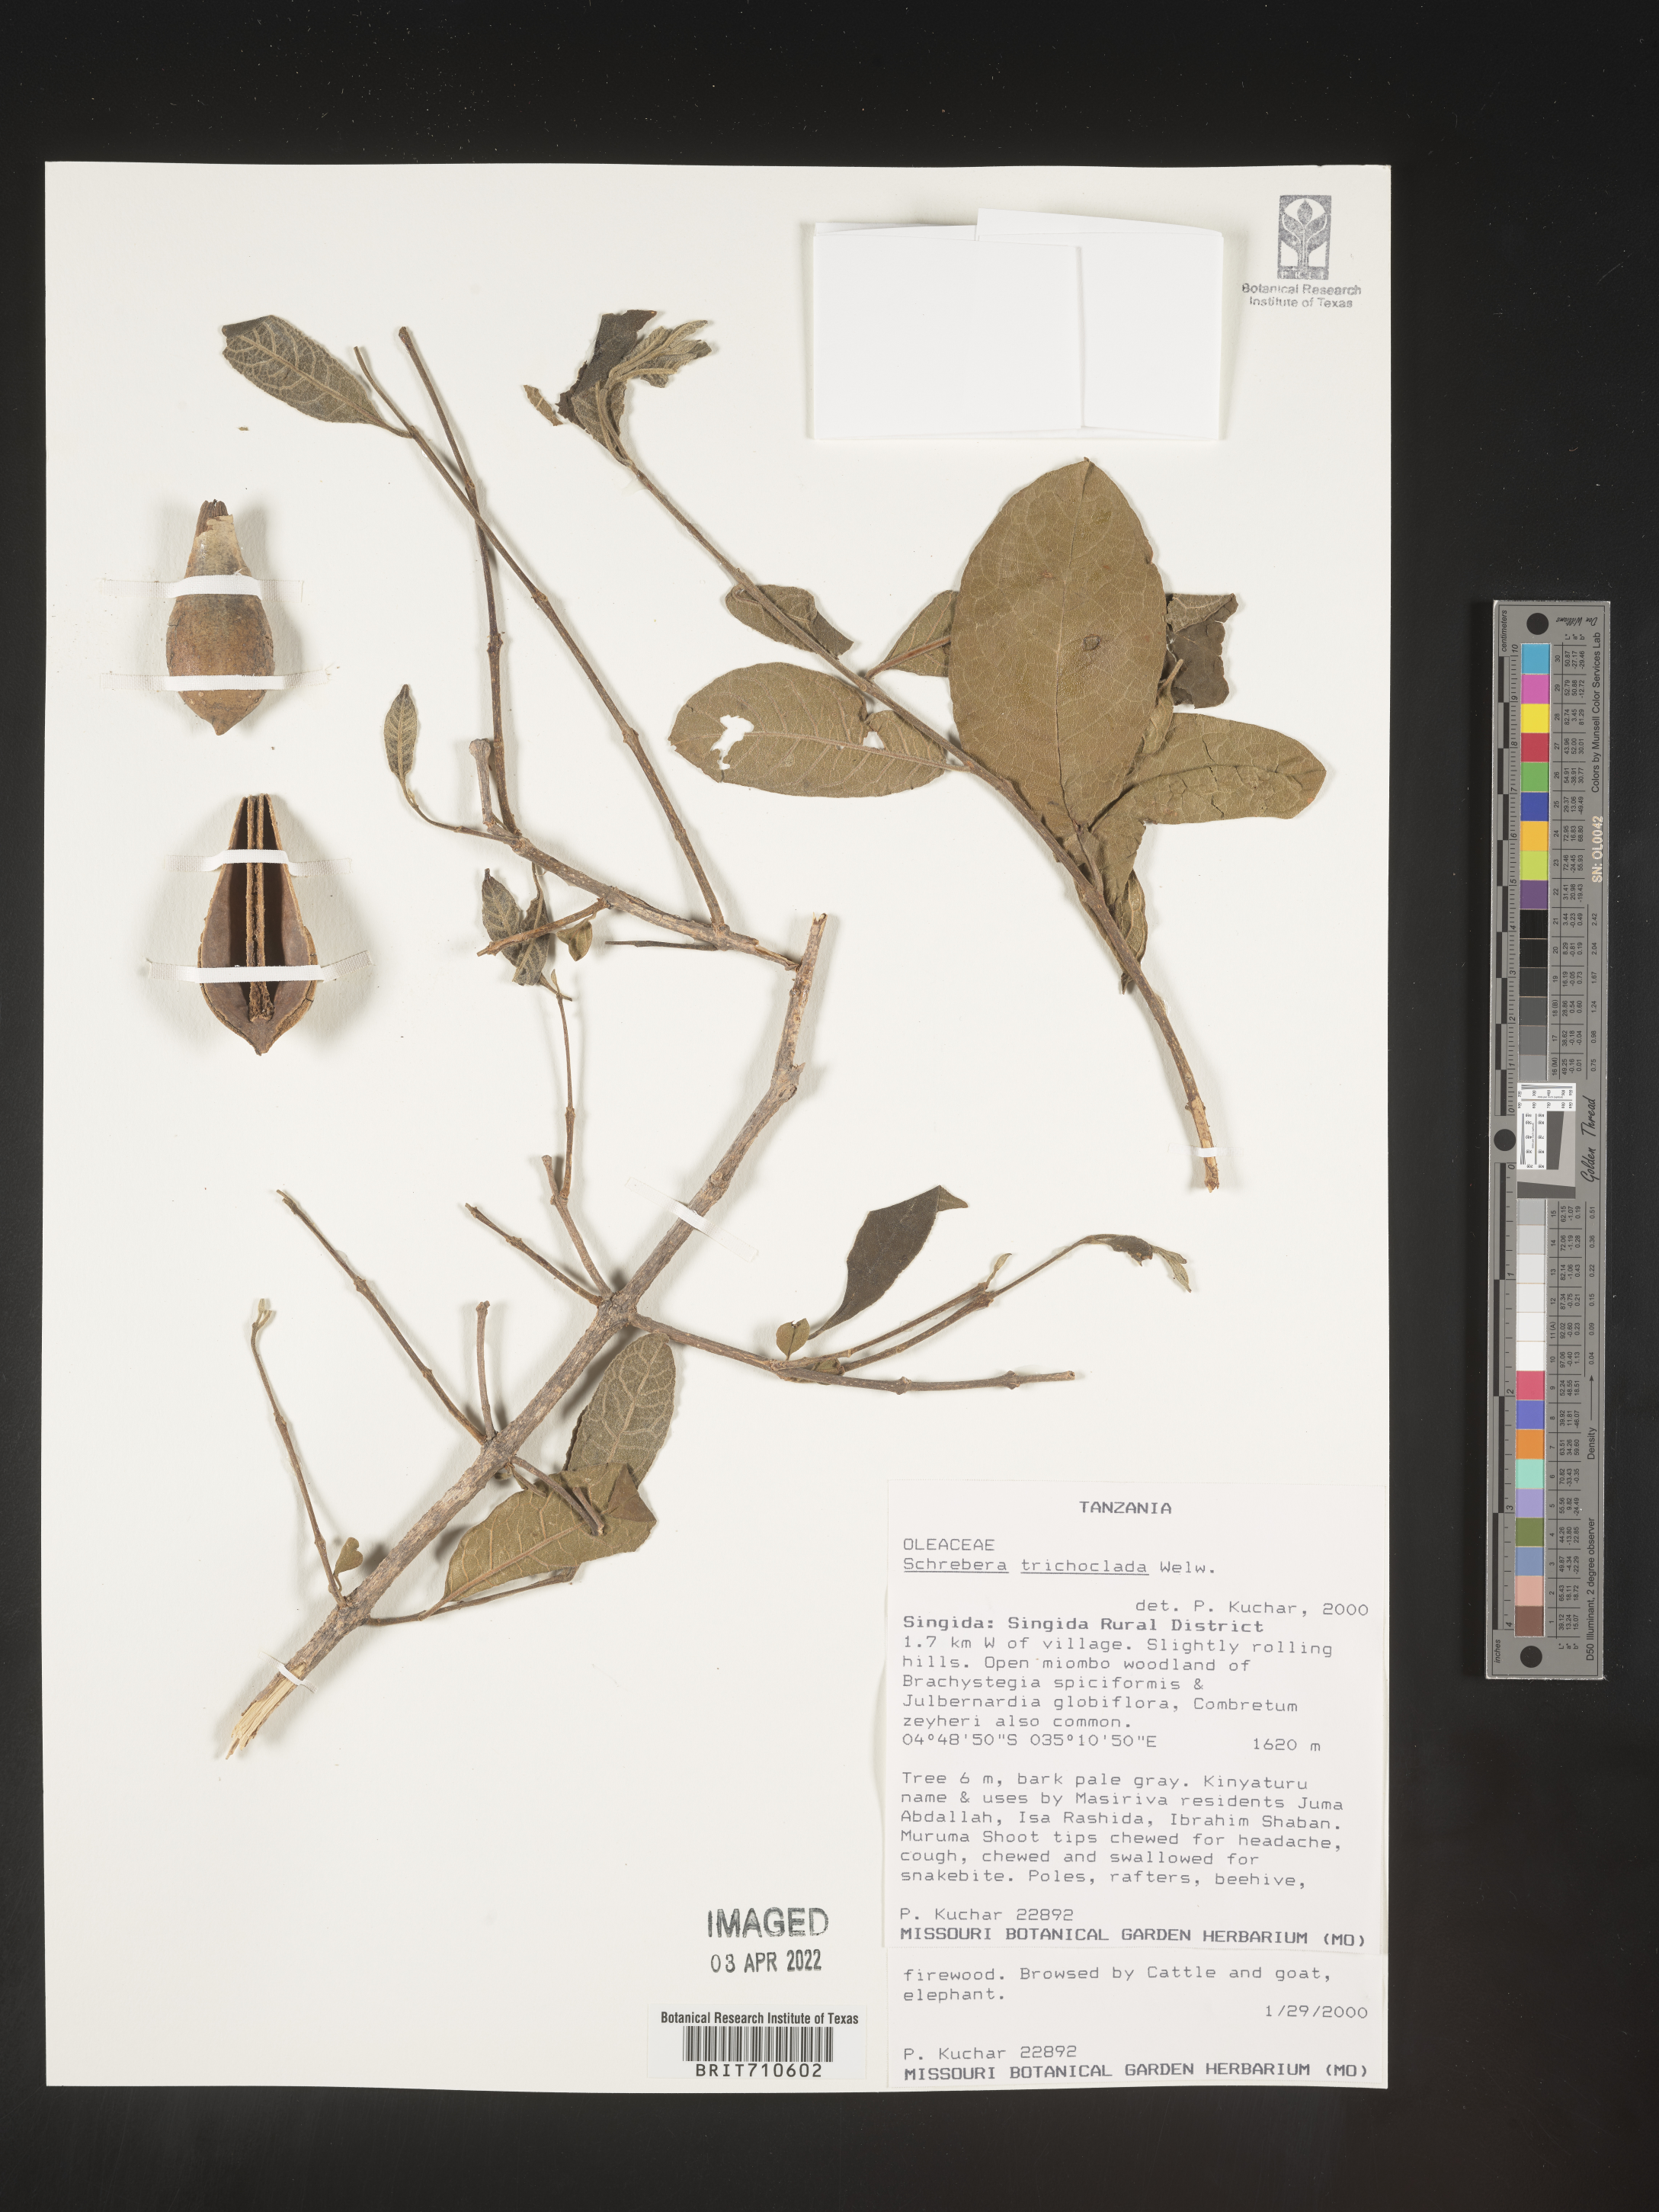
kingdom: Plantae
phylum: Tracheophyta
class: Magnoliopsida
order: Lamiales
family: Oleaceae
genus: Schrebera
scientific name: Schrebera trichoclada
